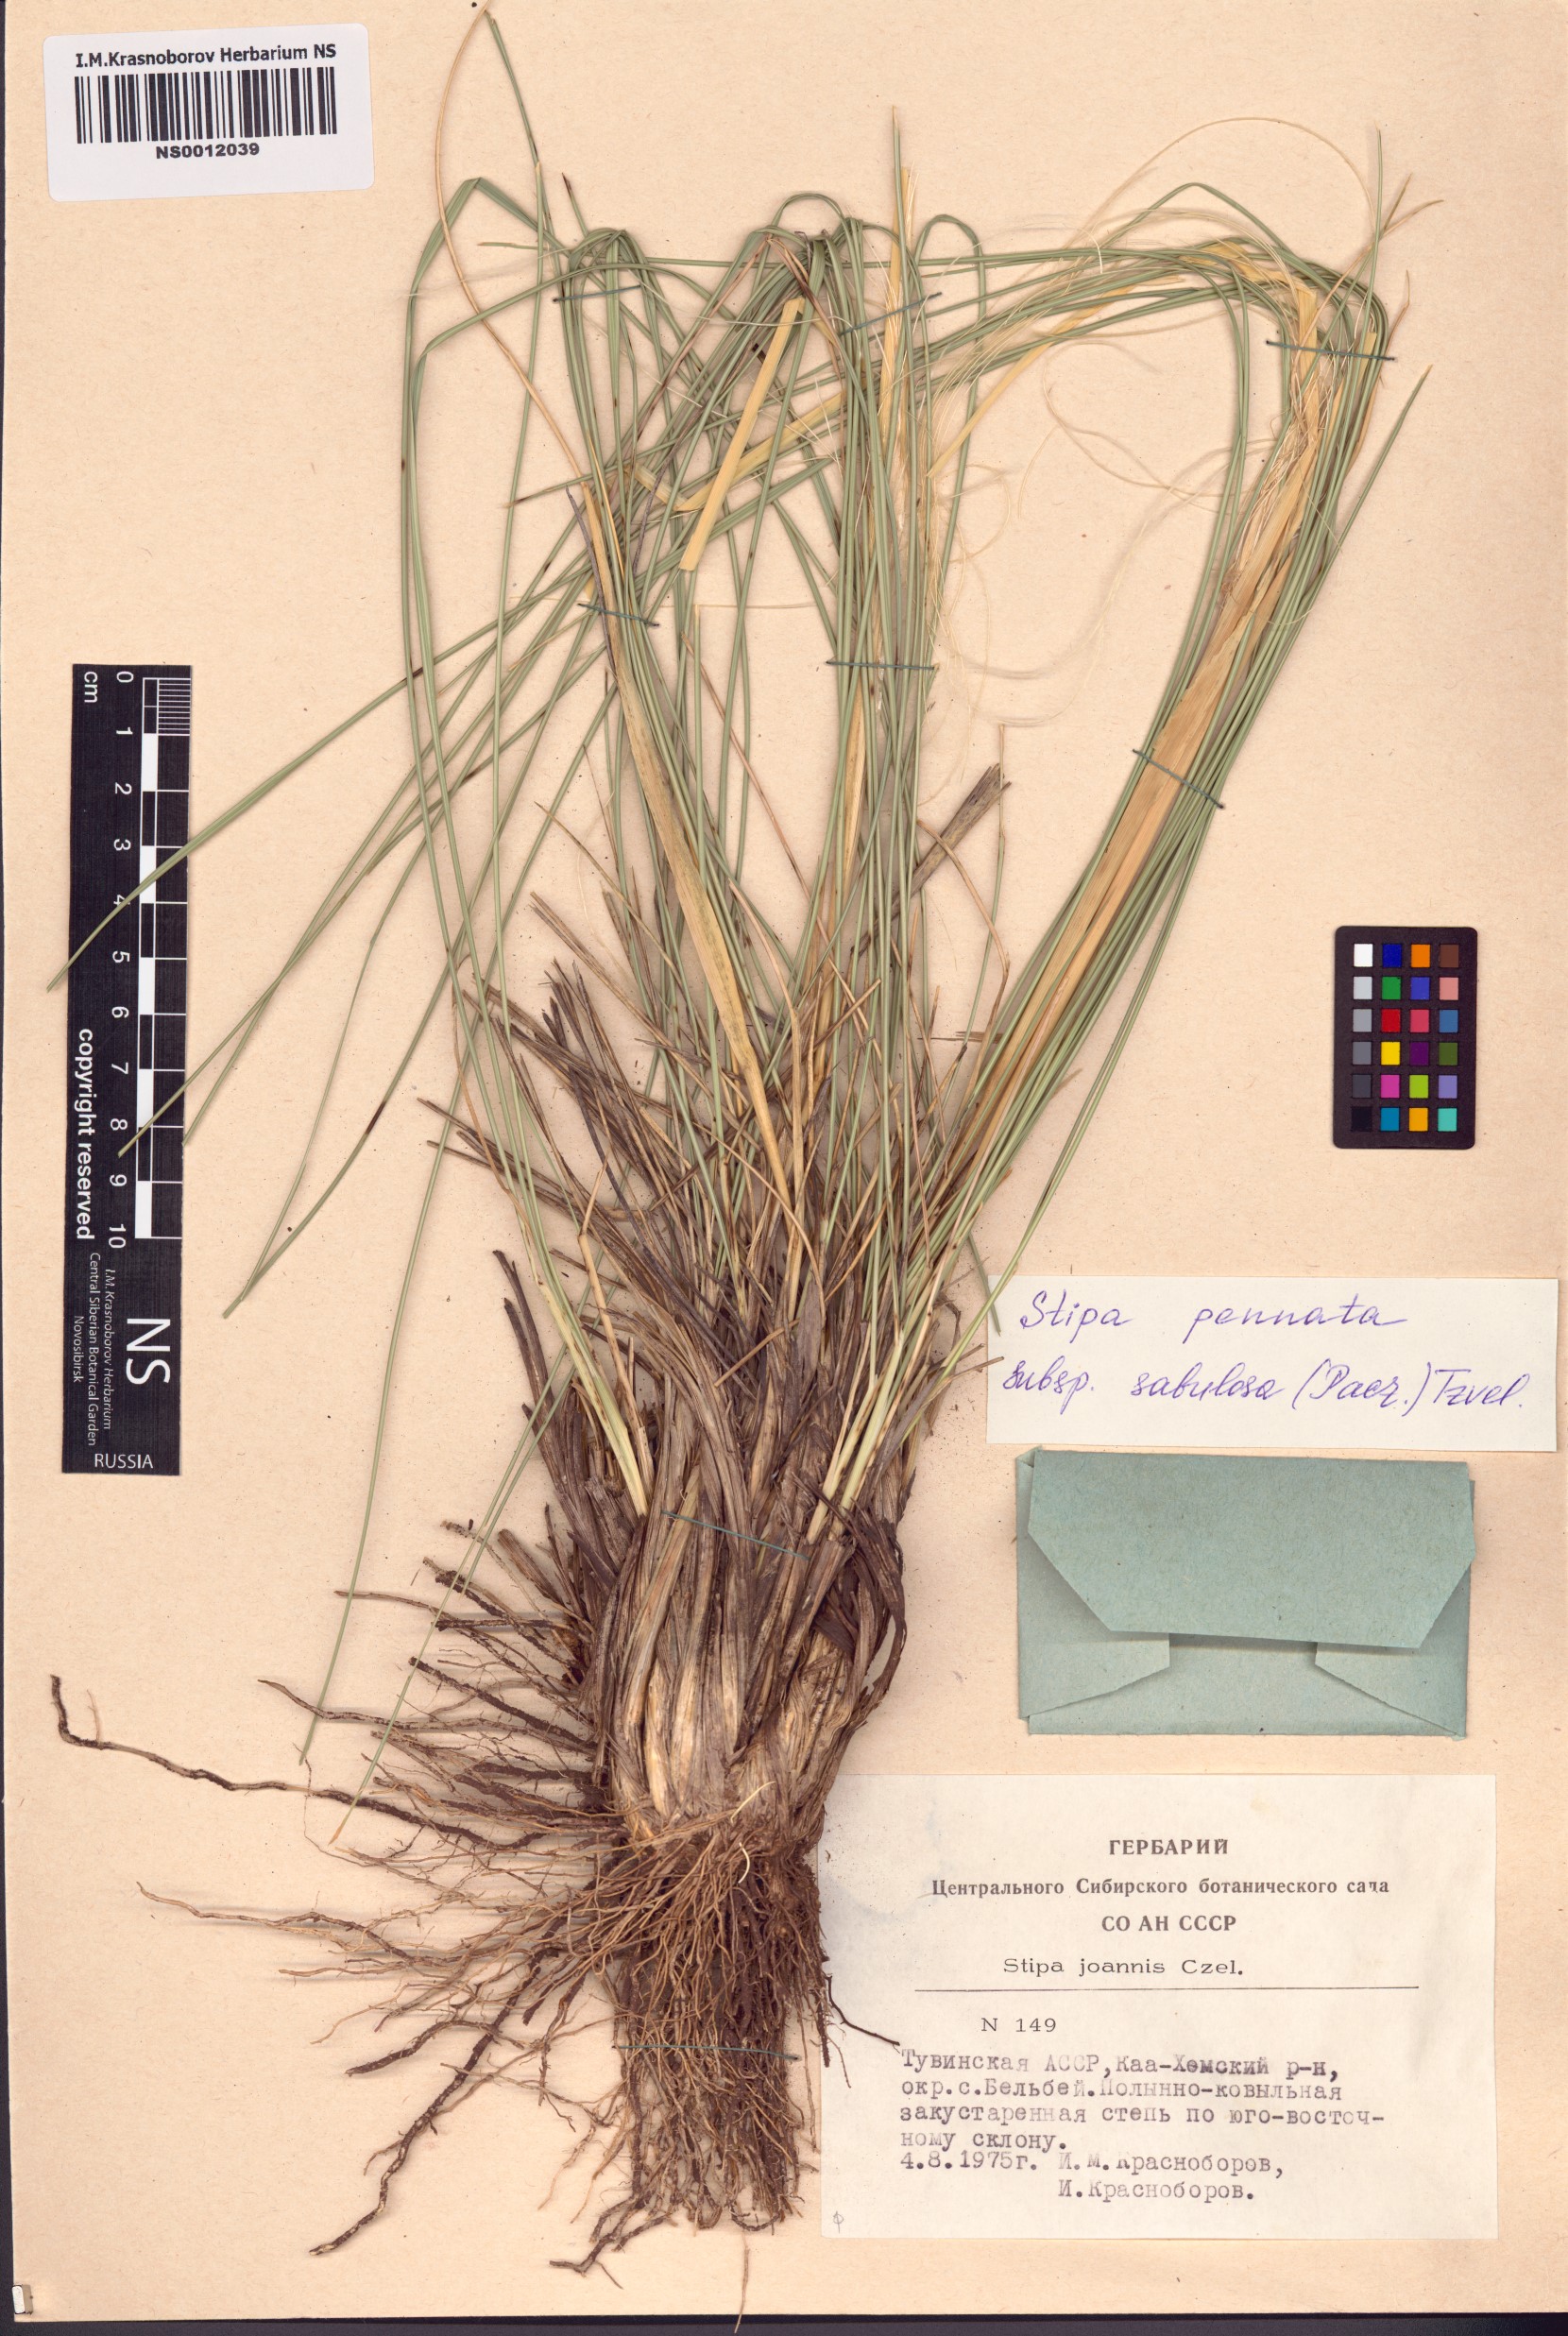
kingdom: Plantae
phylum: Tracheophyta
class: Liliopsida
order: Poales
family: Poaceae
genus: Stipa
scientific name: Stipa borysthenica
